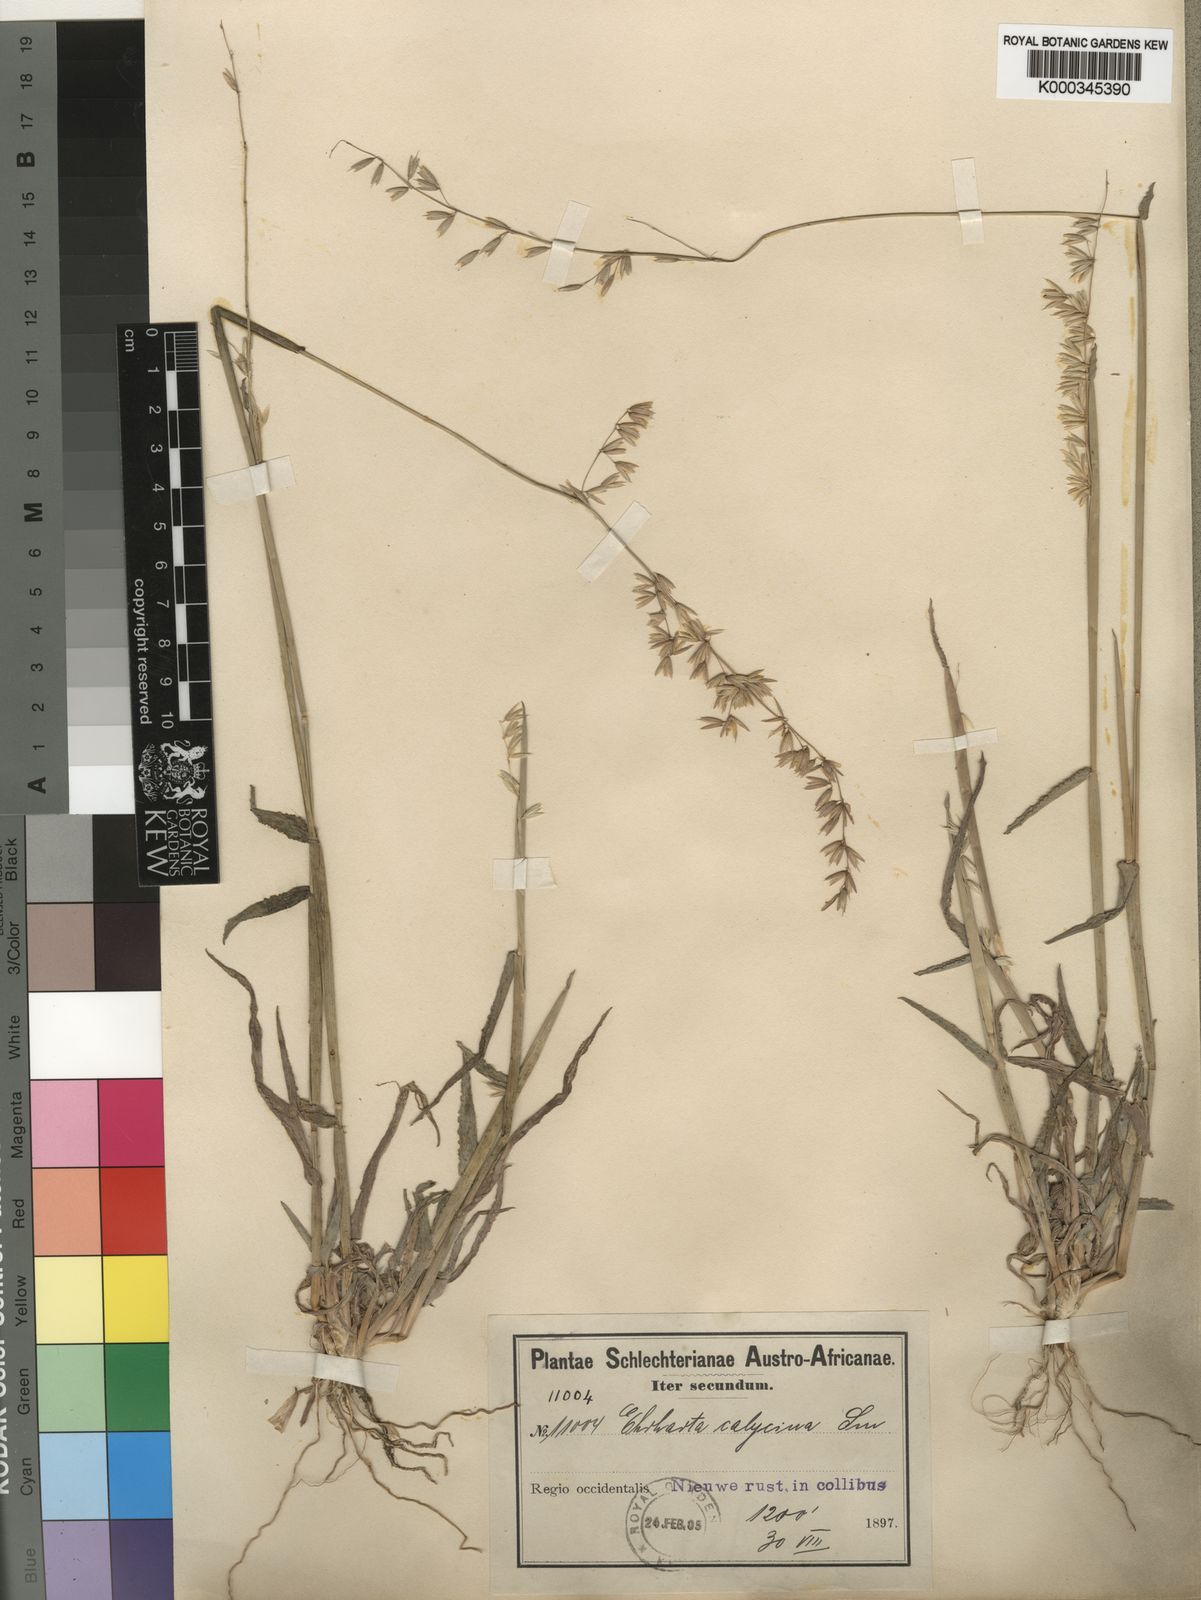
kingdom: Plantae
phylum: Tracheophyta
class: Liliopsida
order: Poales
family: Poaceae
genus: Ehrharta
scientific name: Ehrharta calycina
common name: Perennial veldtgrass
